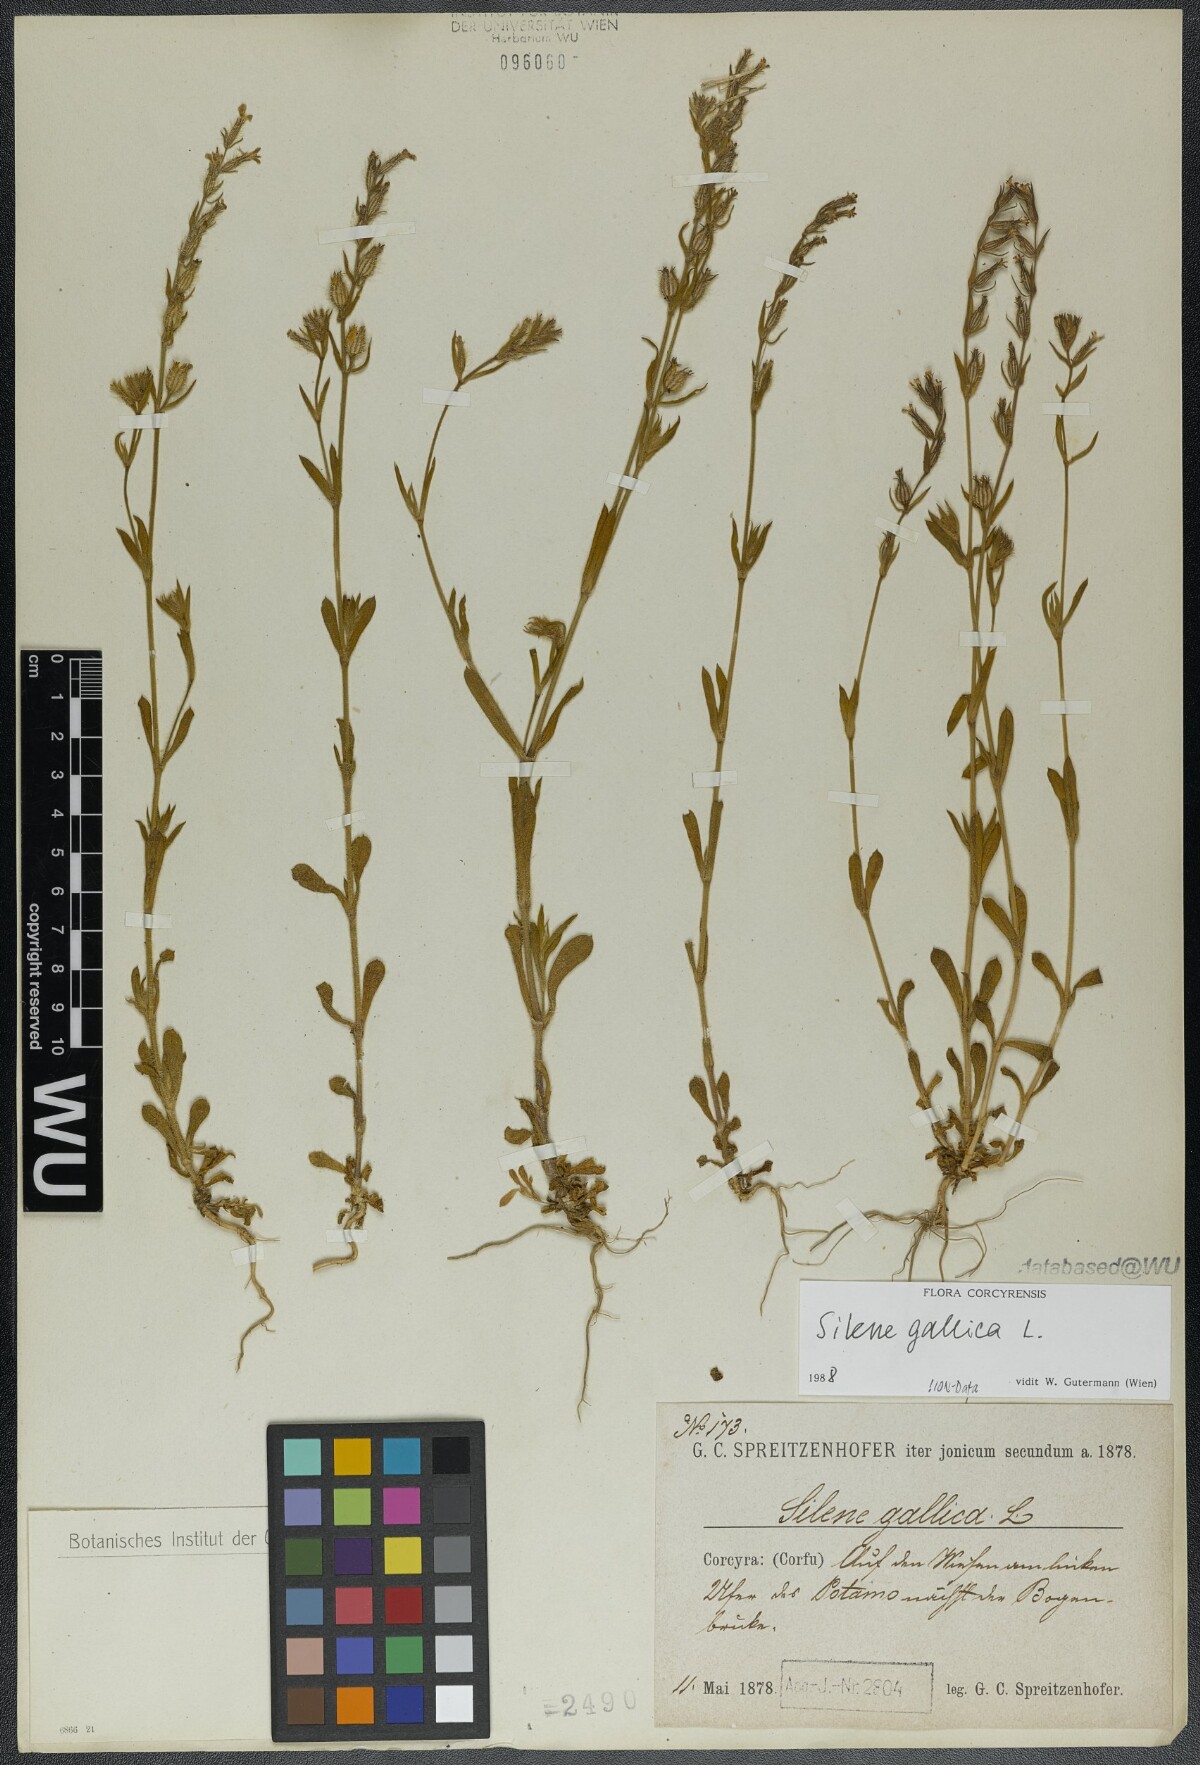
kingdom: Plantae
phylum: Tracheophyta
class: Magnoliopsida
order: Caryophyllales
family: Caryophyllaceae
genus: Silene
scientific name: Silene gallica
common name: Small-flowered catchfly
